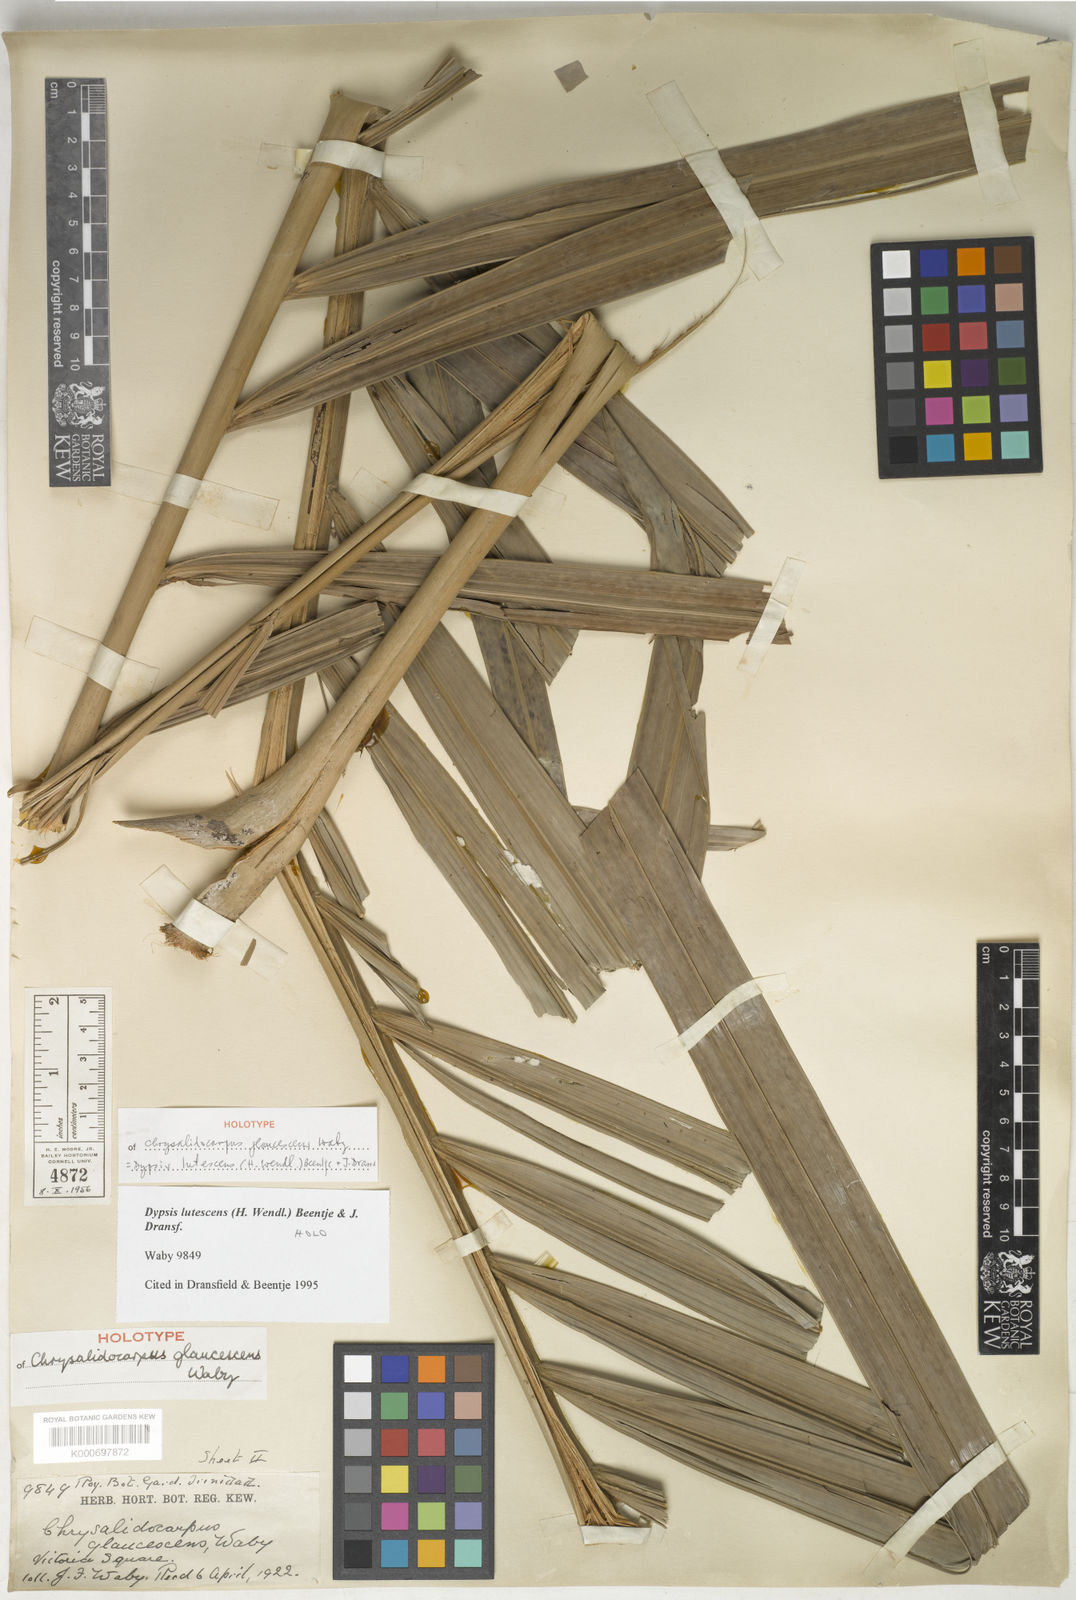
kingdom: Plantae
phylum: Tracheophyta
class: Liliopsida
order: Arecales
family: Arecaceae
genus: Dypsis
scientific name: Dypsis lutescens
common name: Yellow butterfly palm
